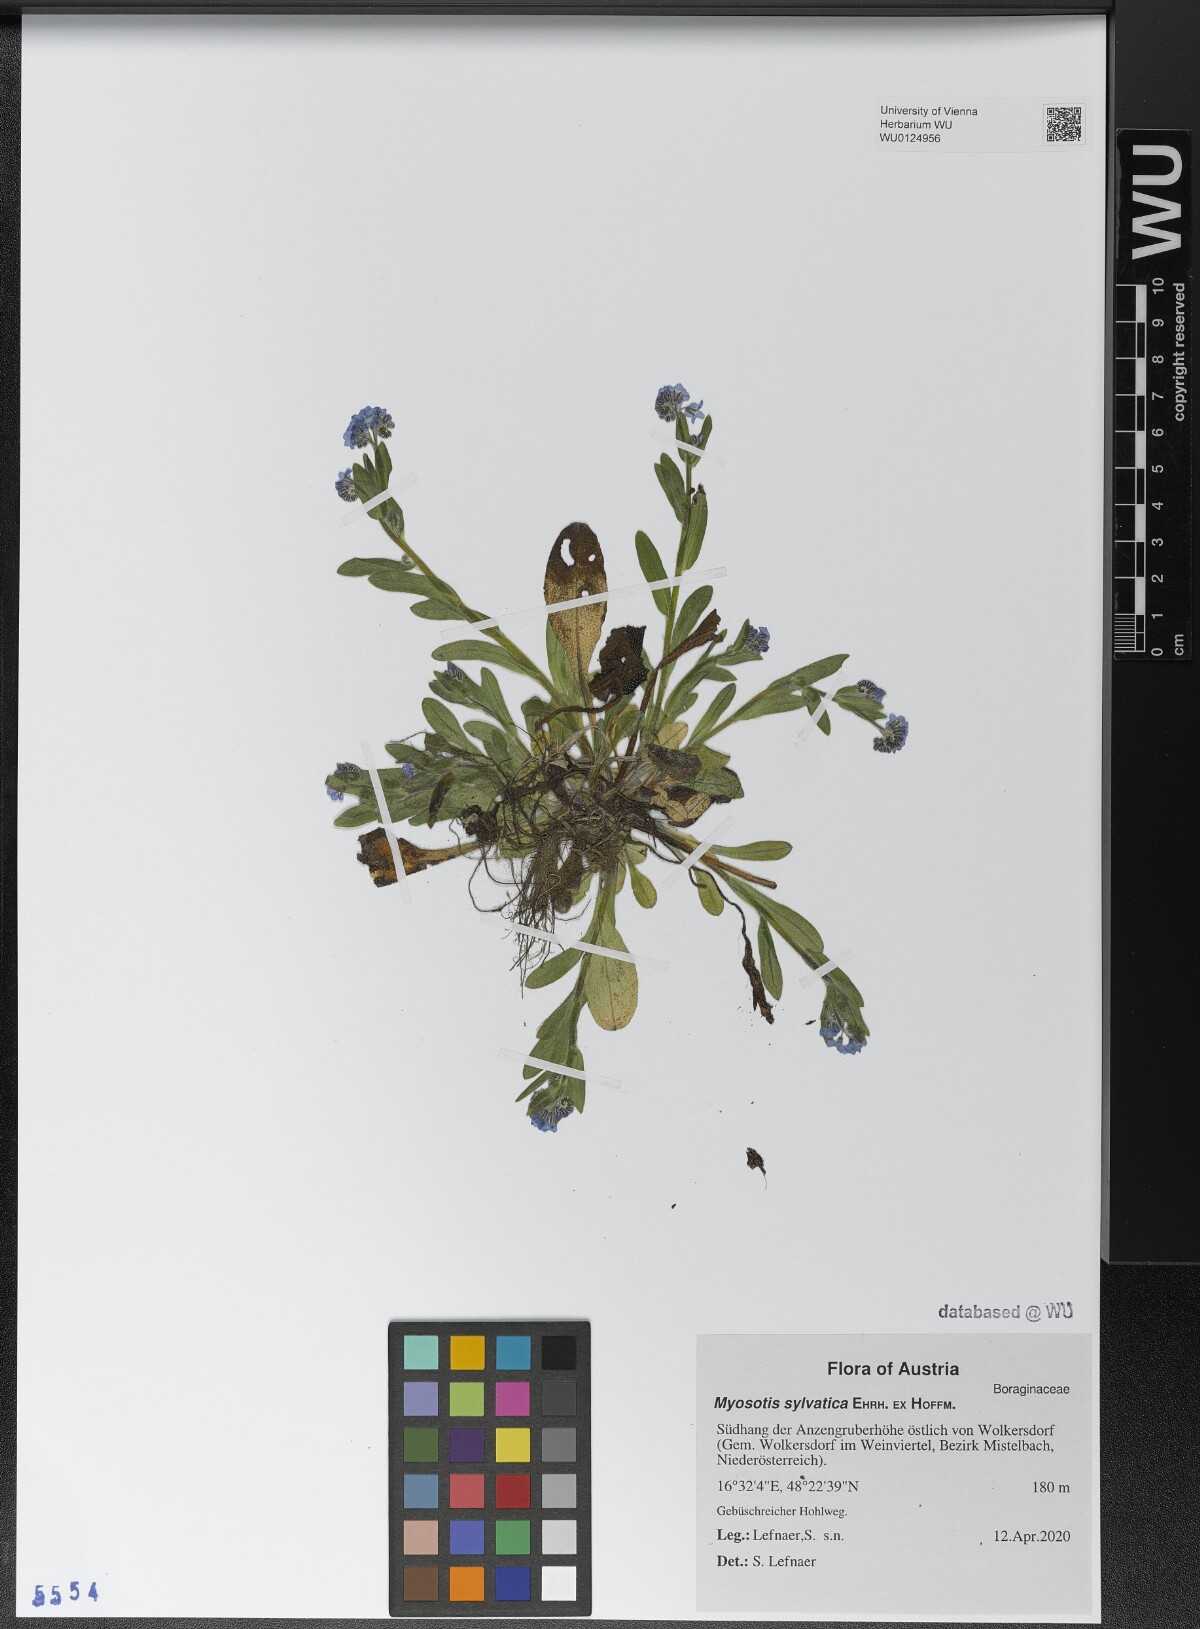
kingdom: Plantae
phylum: Tracheophyta
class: Magnoliopsida
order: Boraginales
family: Boraginaceae
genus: Myosotis
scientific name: Myosotis sylvatica
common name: Wood forget-me-not
